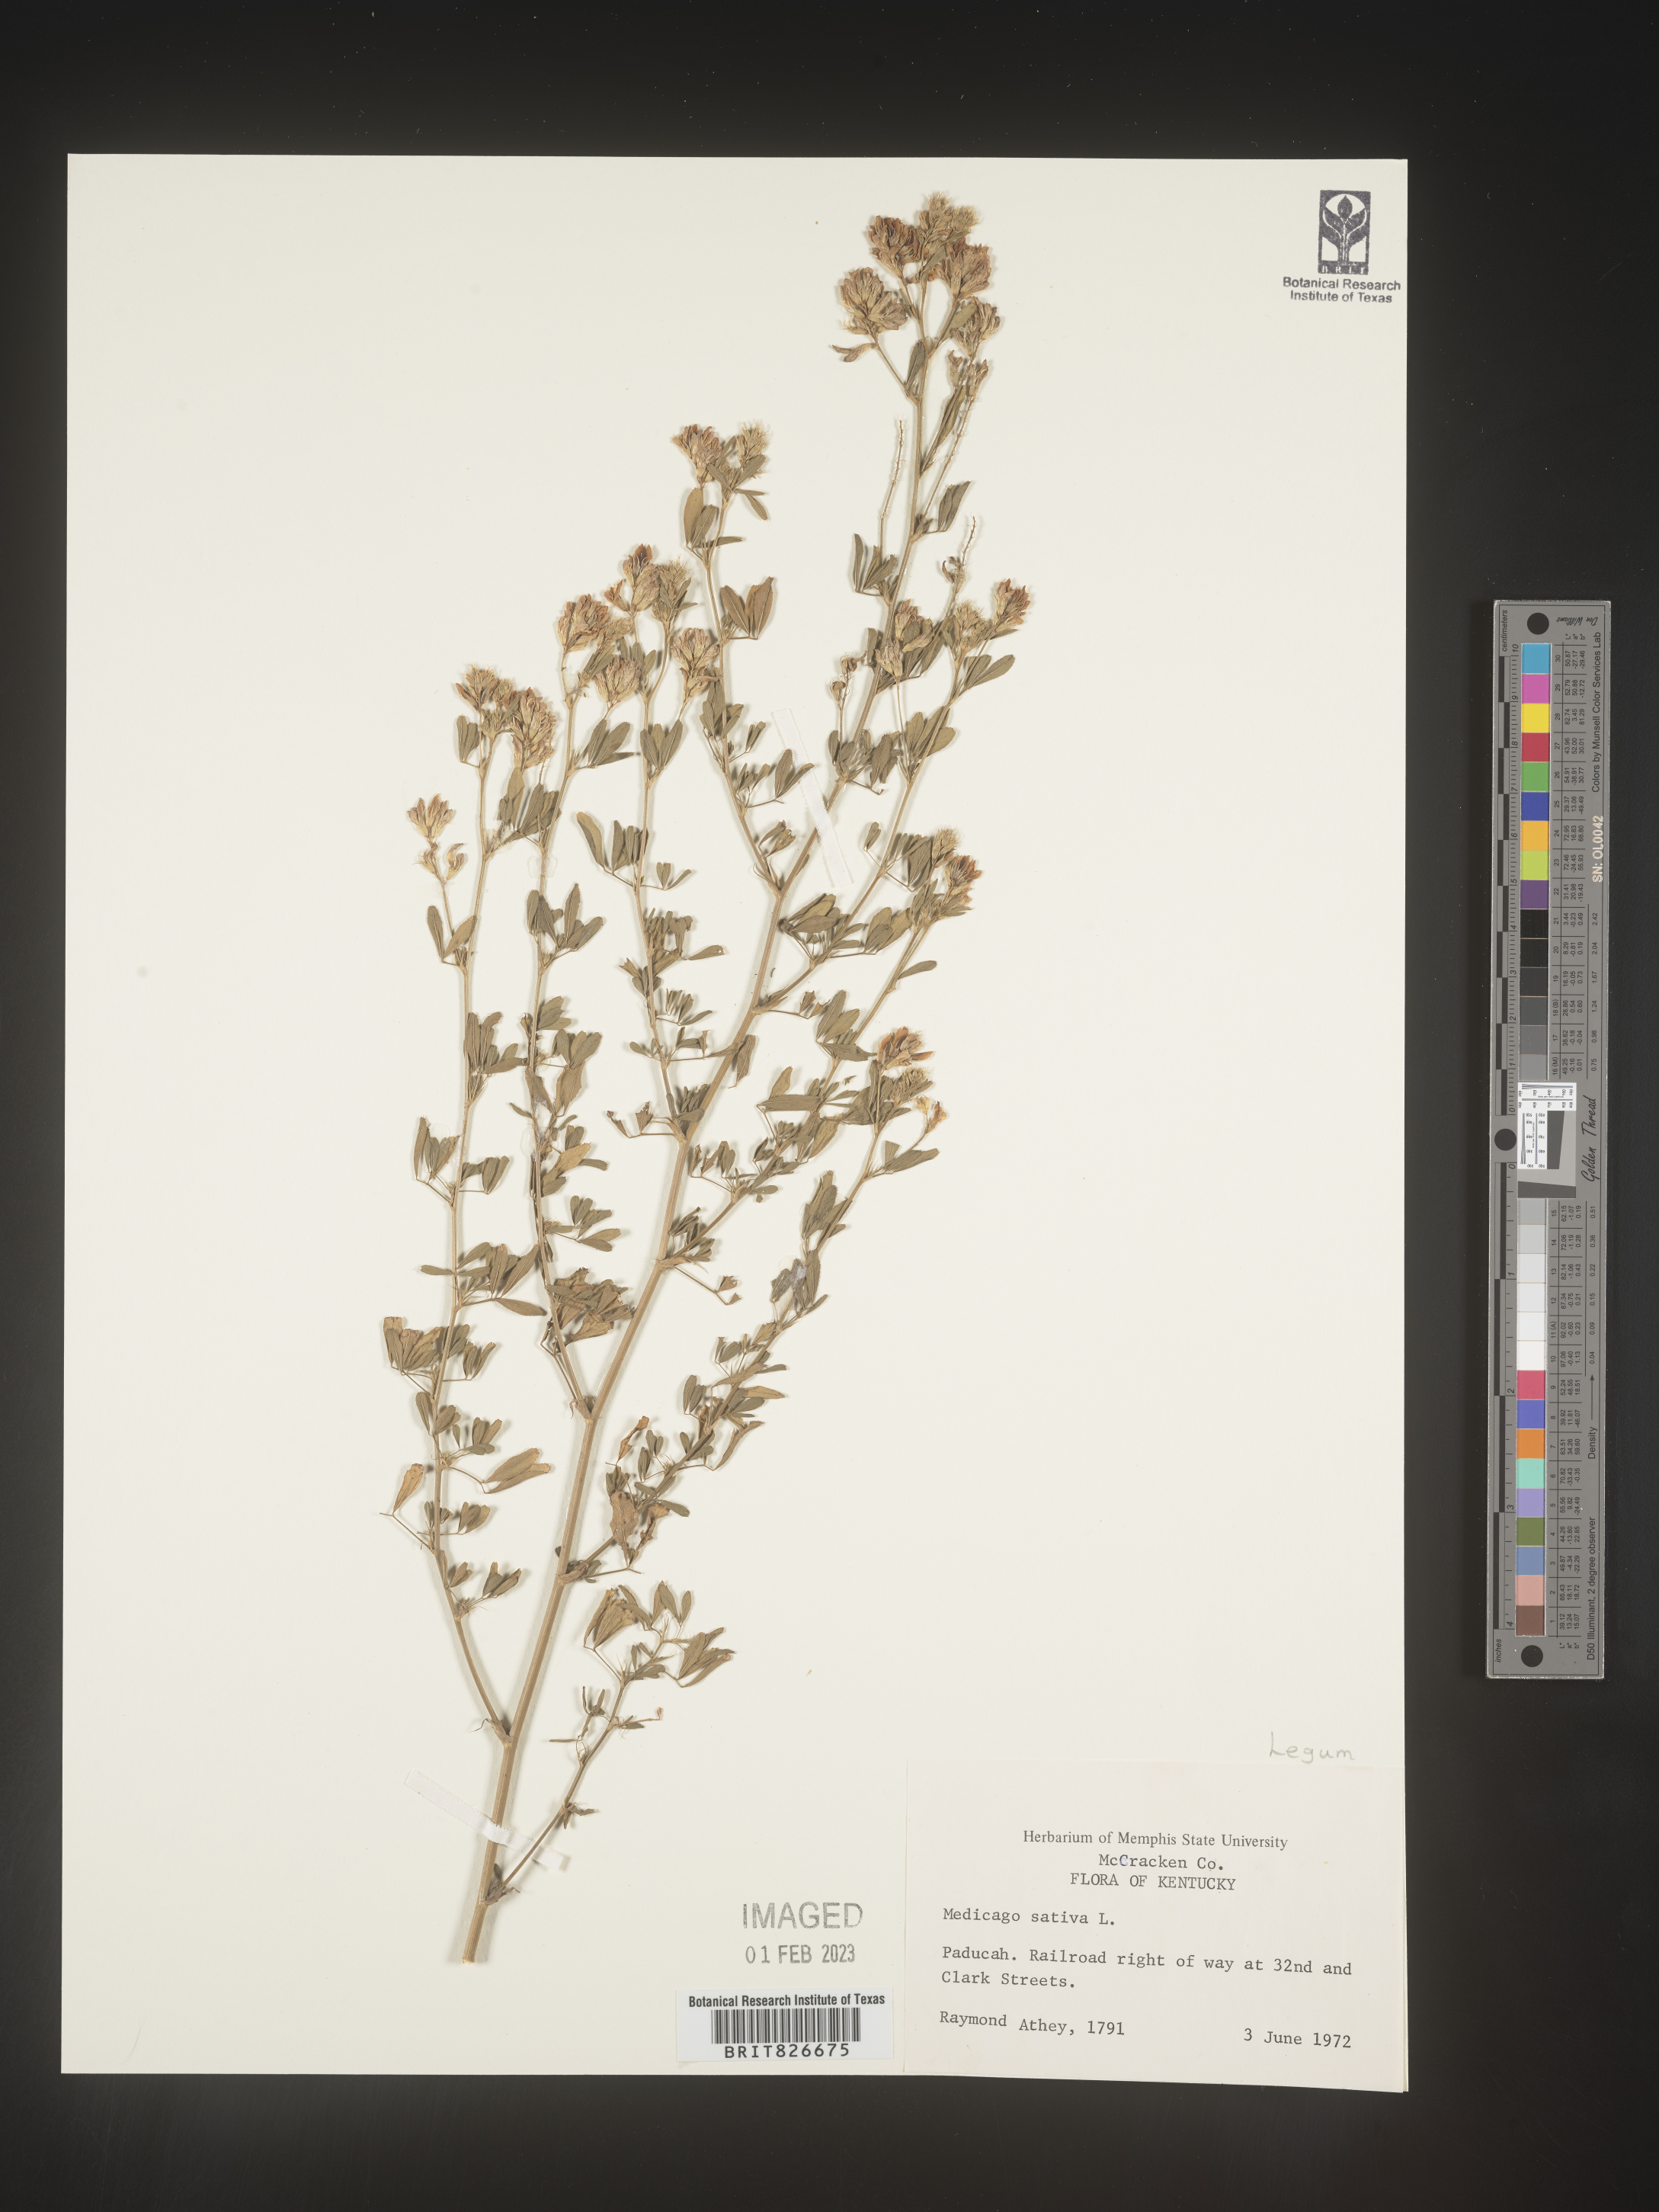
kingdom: Plantae
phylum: Tracheophyta
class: Magnoliopsida
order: Fabales
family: Fabaceae
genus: Medicago
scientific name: Medicago sativa
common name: Alfalfa
